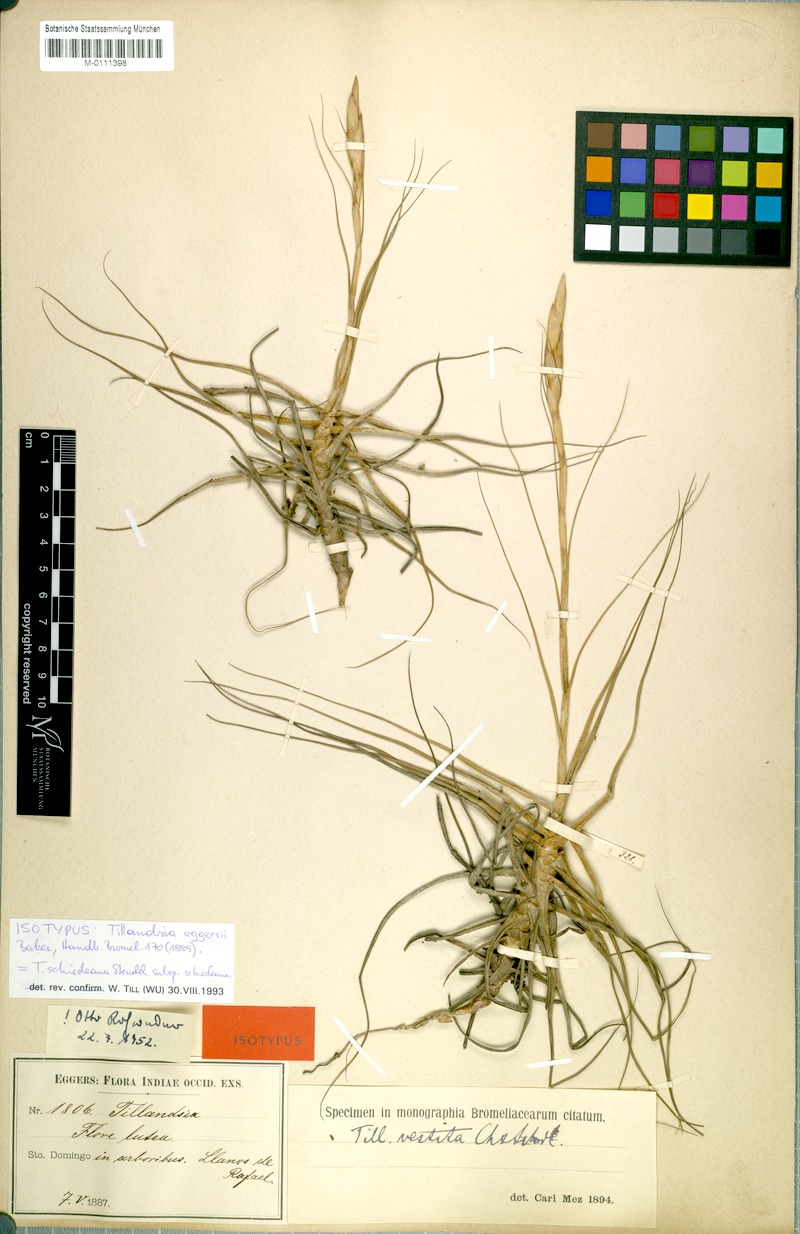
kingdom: Plantae
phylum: Tracheophyta
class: Liliopsida
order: Poales
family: Bromeliaceae
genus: Tillandsia
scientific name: Tillandsia schiedeana
